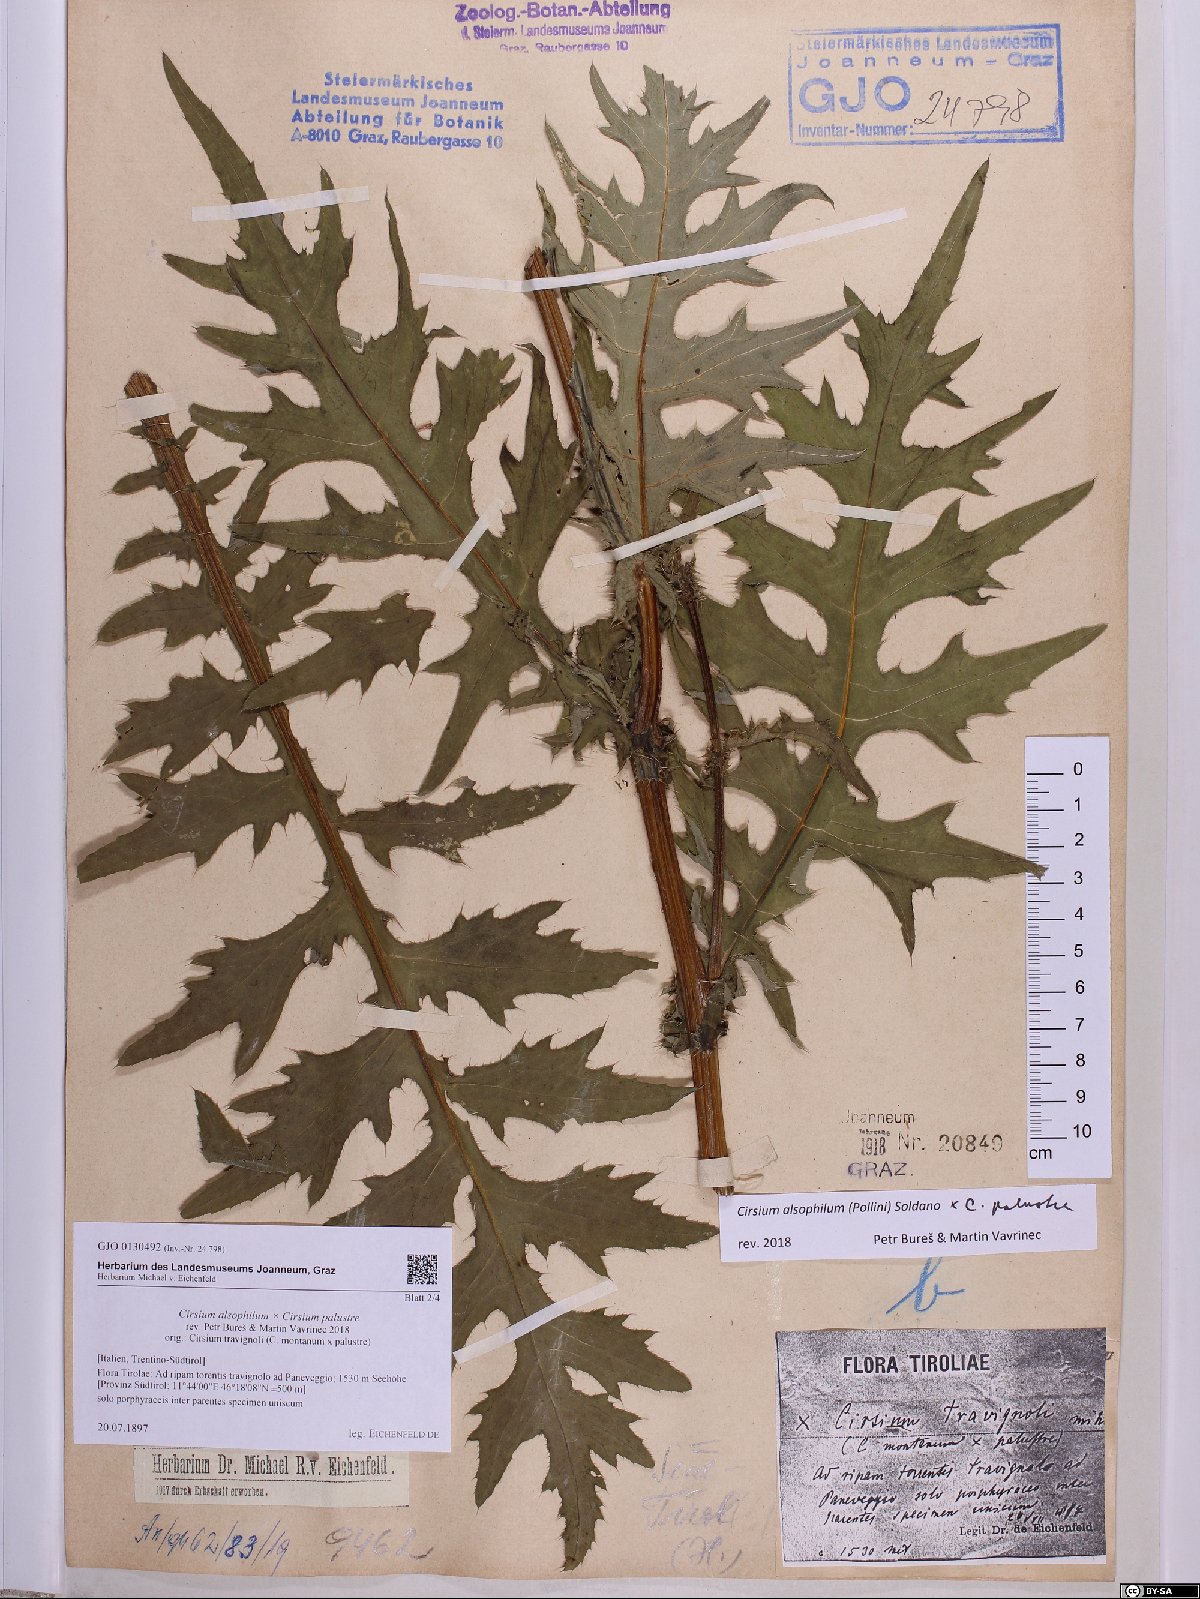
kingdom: Plantae
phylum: Tracheophyta
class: Magnoliopsida
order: Asterales
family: Asteraceae
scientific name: Asteraceae
